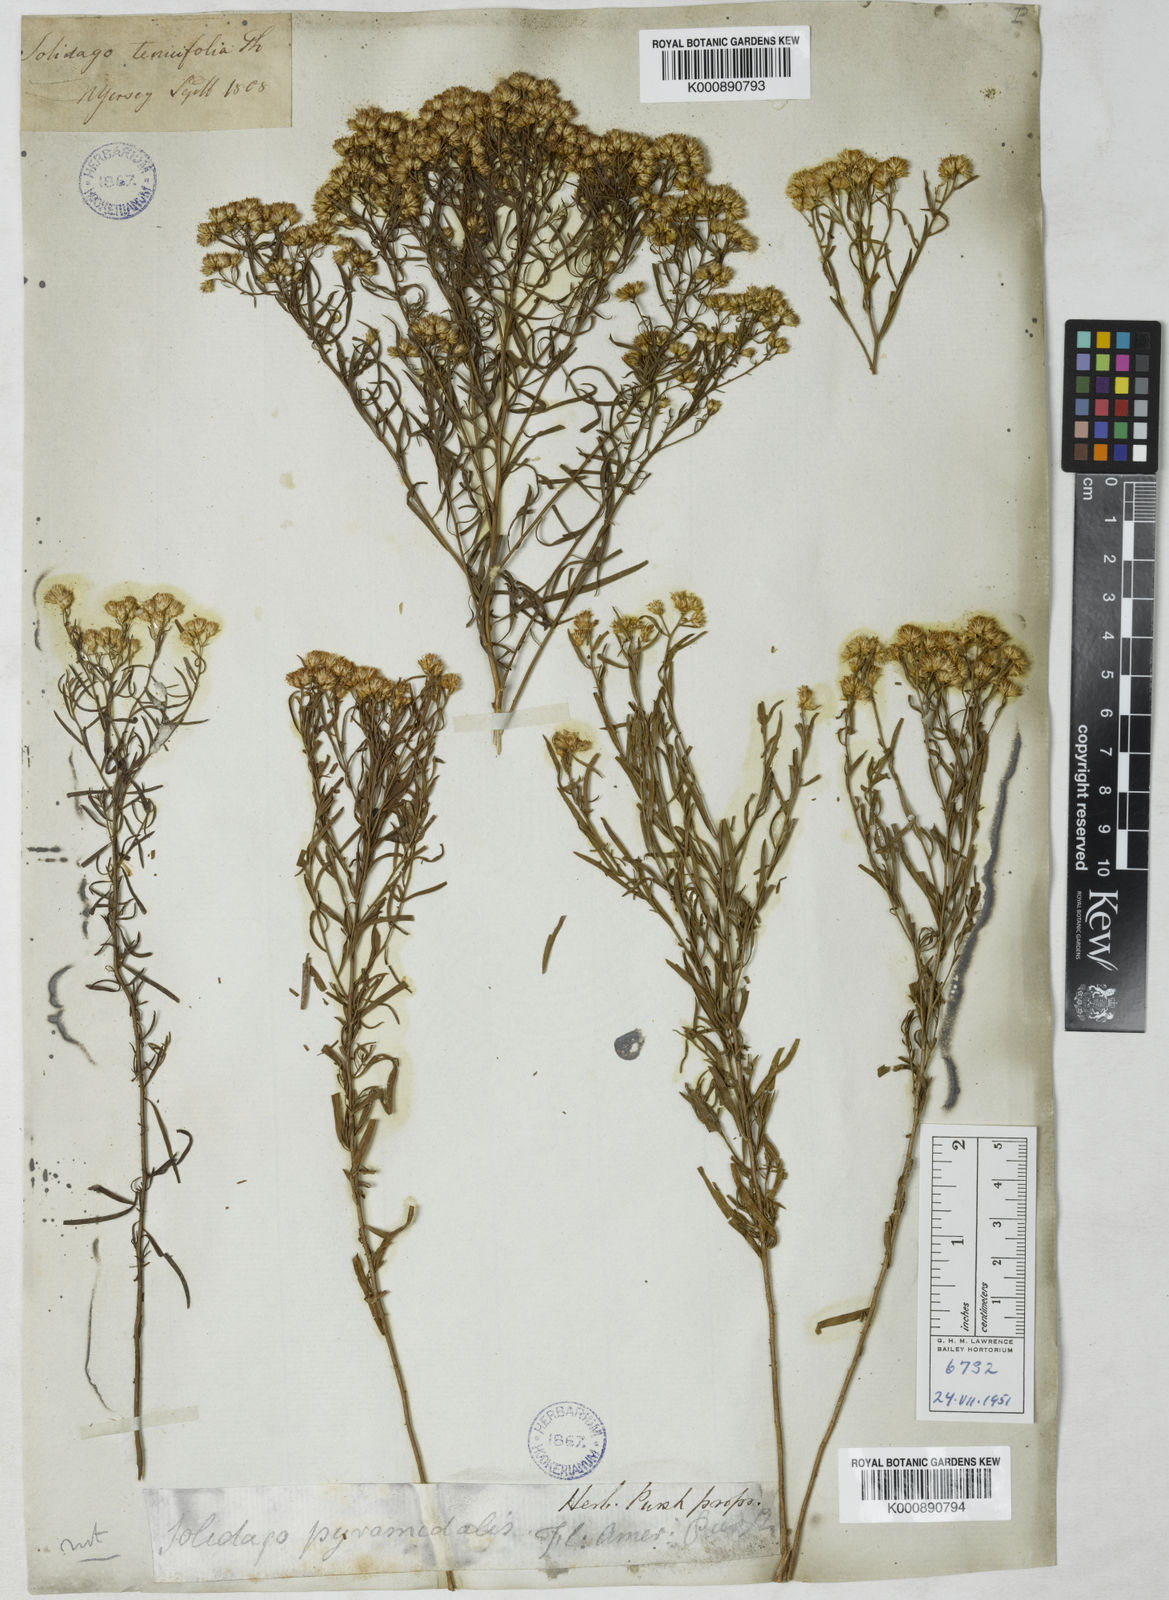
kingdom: Plantae
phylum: Tracheophyta
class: Magnoliopsida
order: Asterales
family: Asteraceae
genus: Euthamia
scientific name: Euthamia caroliniana
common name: Coastal plain goldentop
